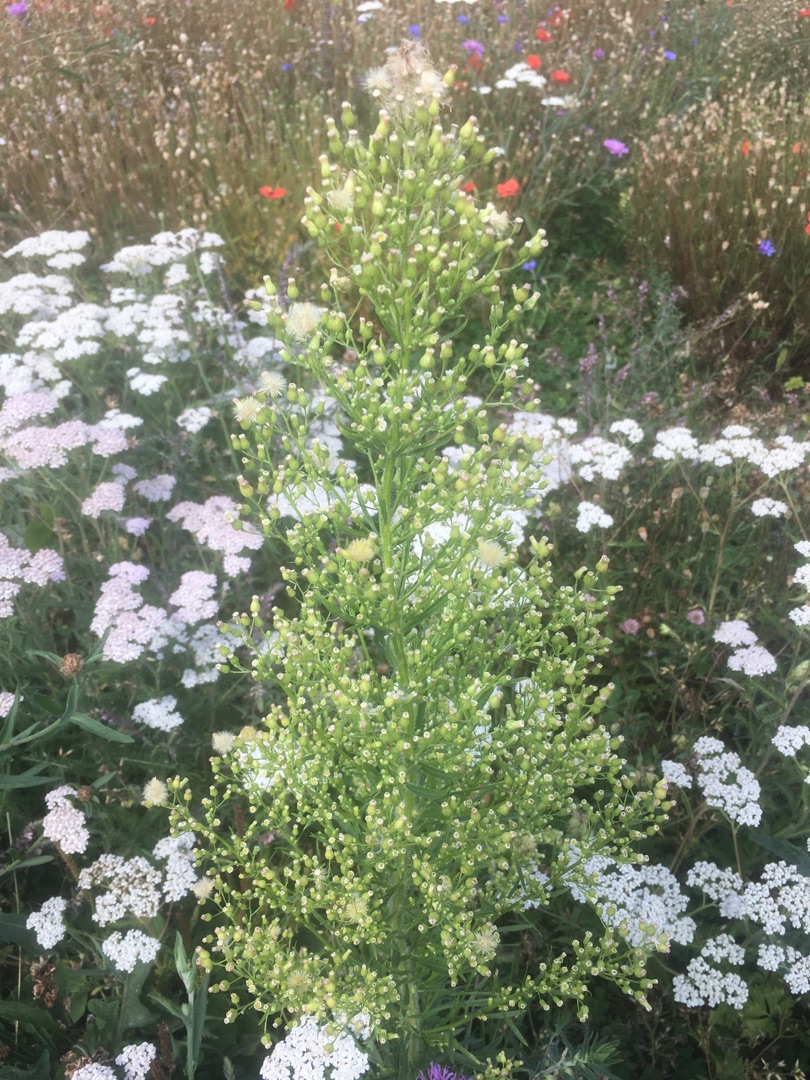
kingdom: Plantae
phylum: Tracheophyta
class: Magnoliopsida
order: Asterales
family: Asteraceae
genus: Erigeron
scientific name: Erigeron canadensis
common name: Kanadisk bakkestjerne
